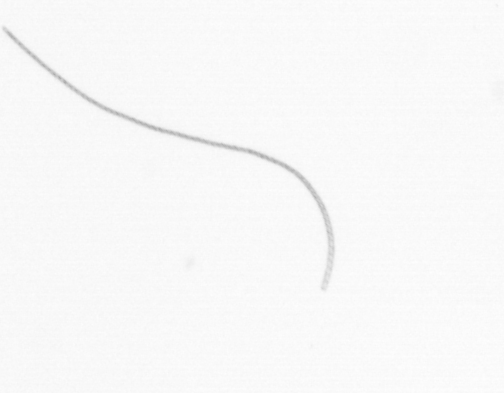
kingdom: Chromista
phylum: Ochrophyta
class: Bacillariophyceae
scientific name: Bacillariophyceae
